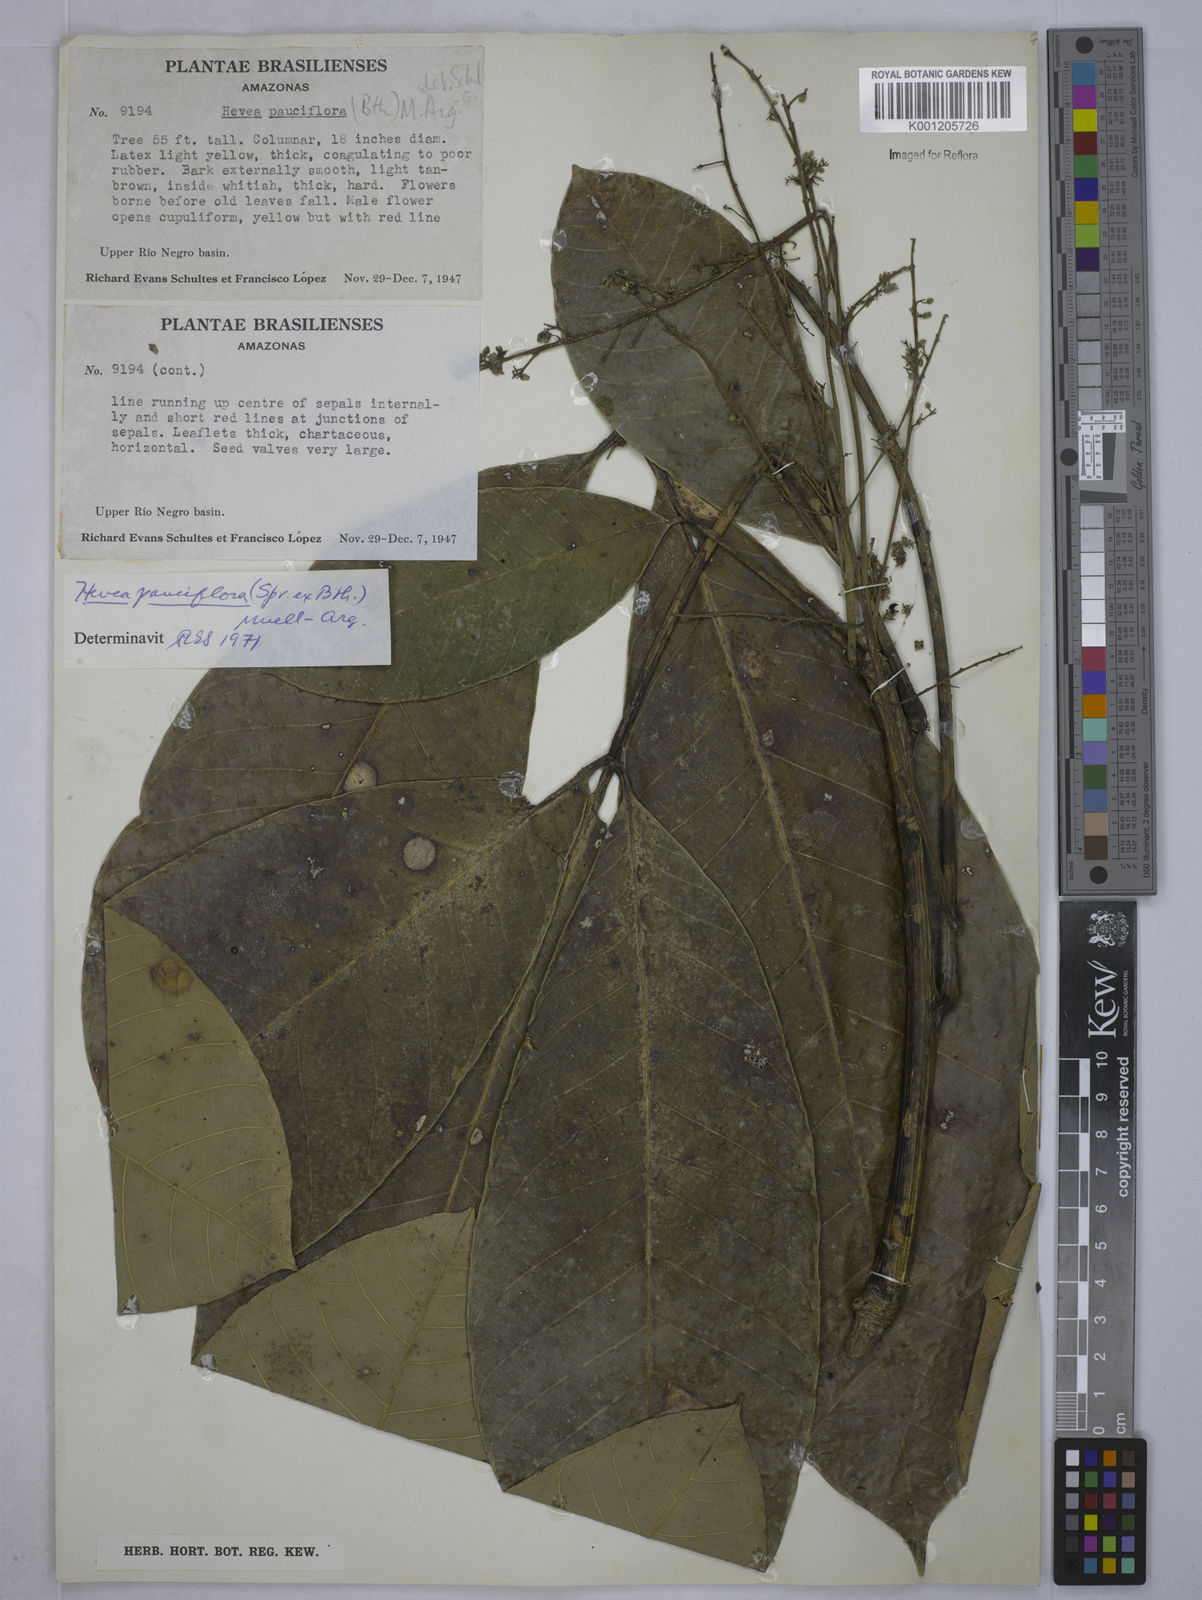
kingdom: Plantae
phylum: Tracheophyta
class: Magnoliopsida
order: Malpighiales
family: Euphorbiaceae
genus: Hevea
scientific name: Hevea
